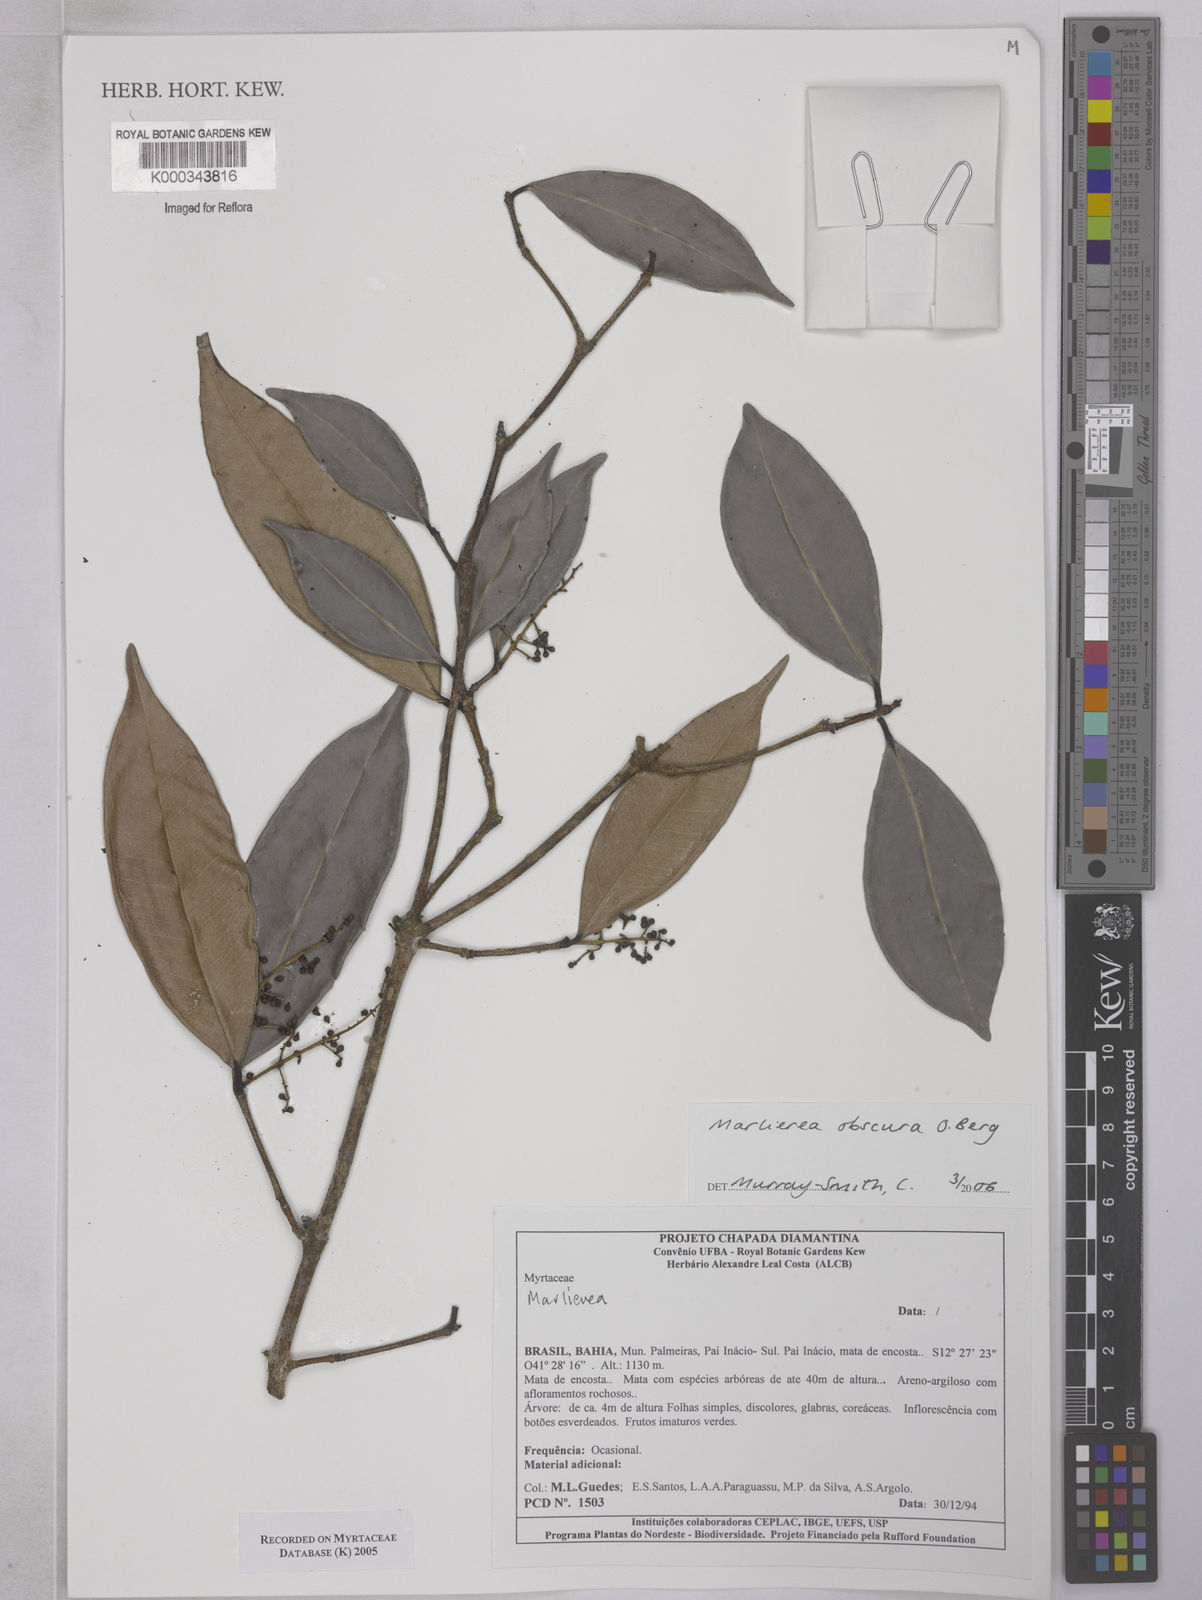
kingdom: Plantae
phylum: Tracheophyta
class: Magnoliopsida
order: Myrtales
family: Myrtaceae
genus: Myrcia
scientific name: Myrcia neoobscura
